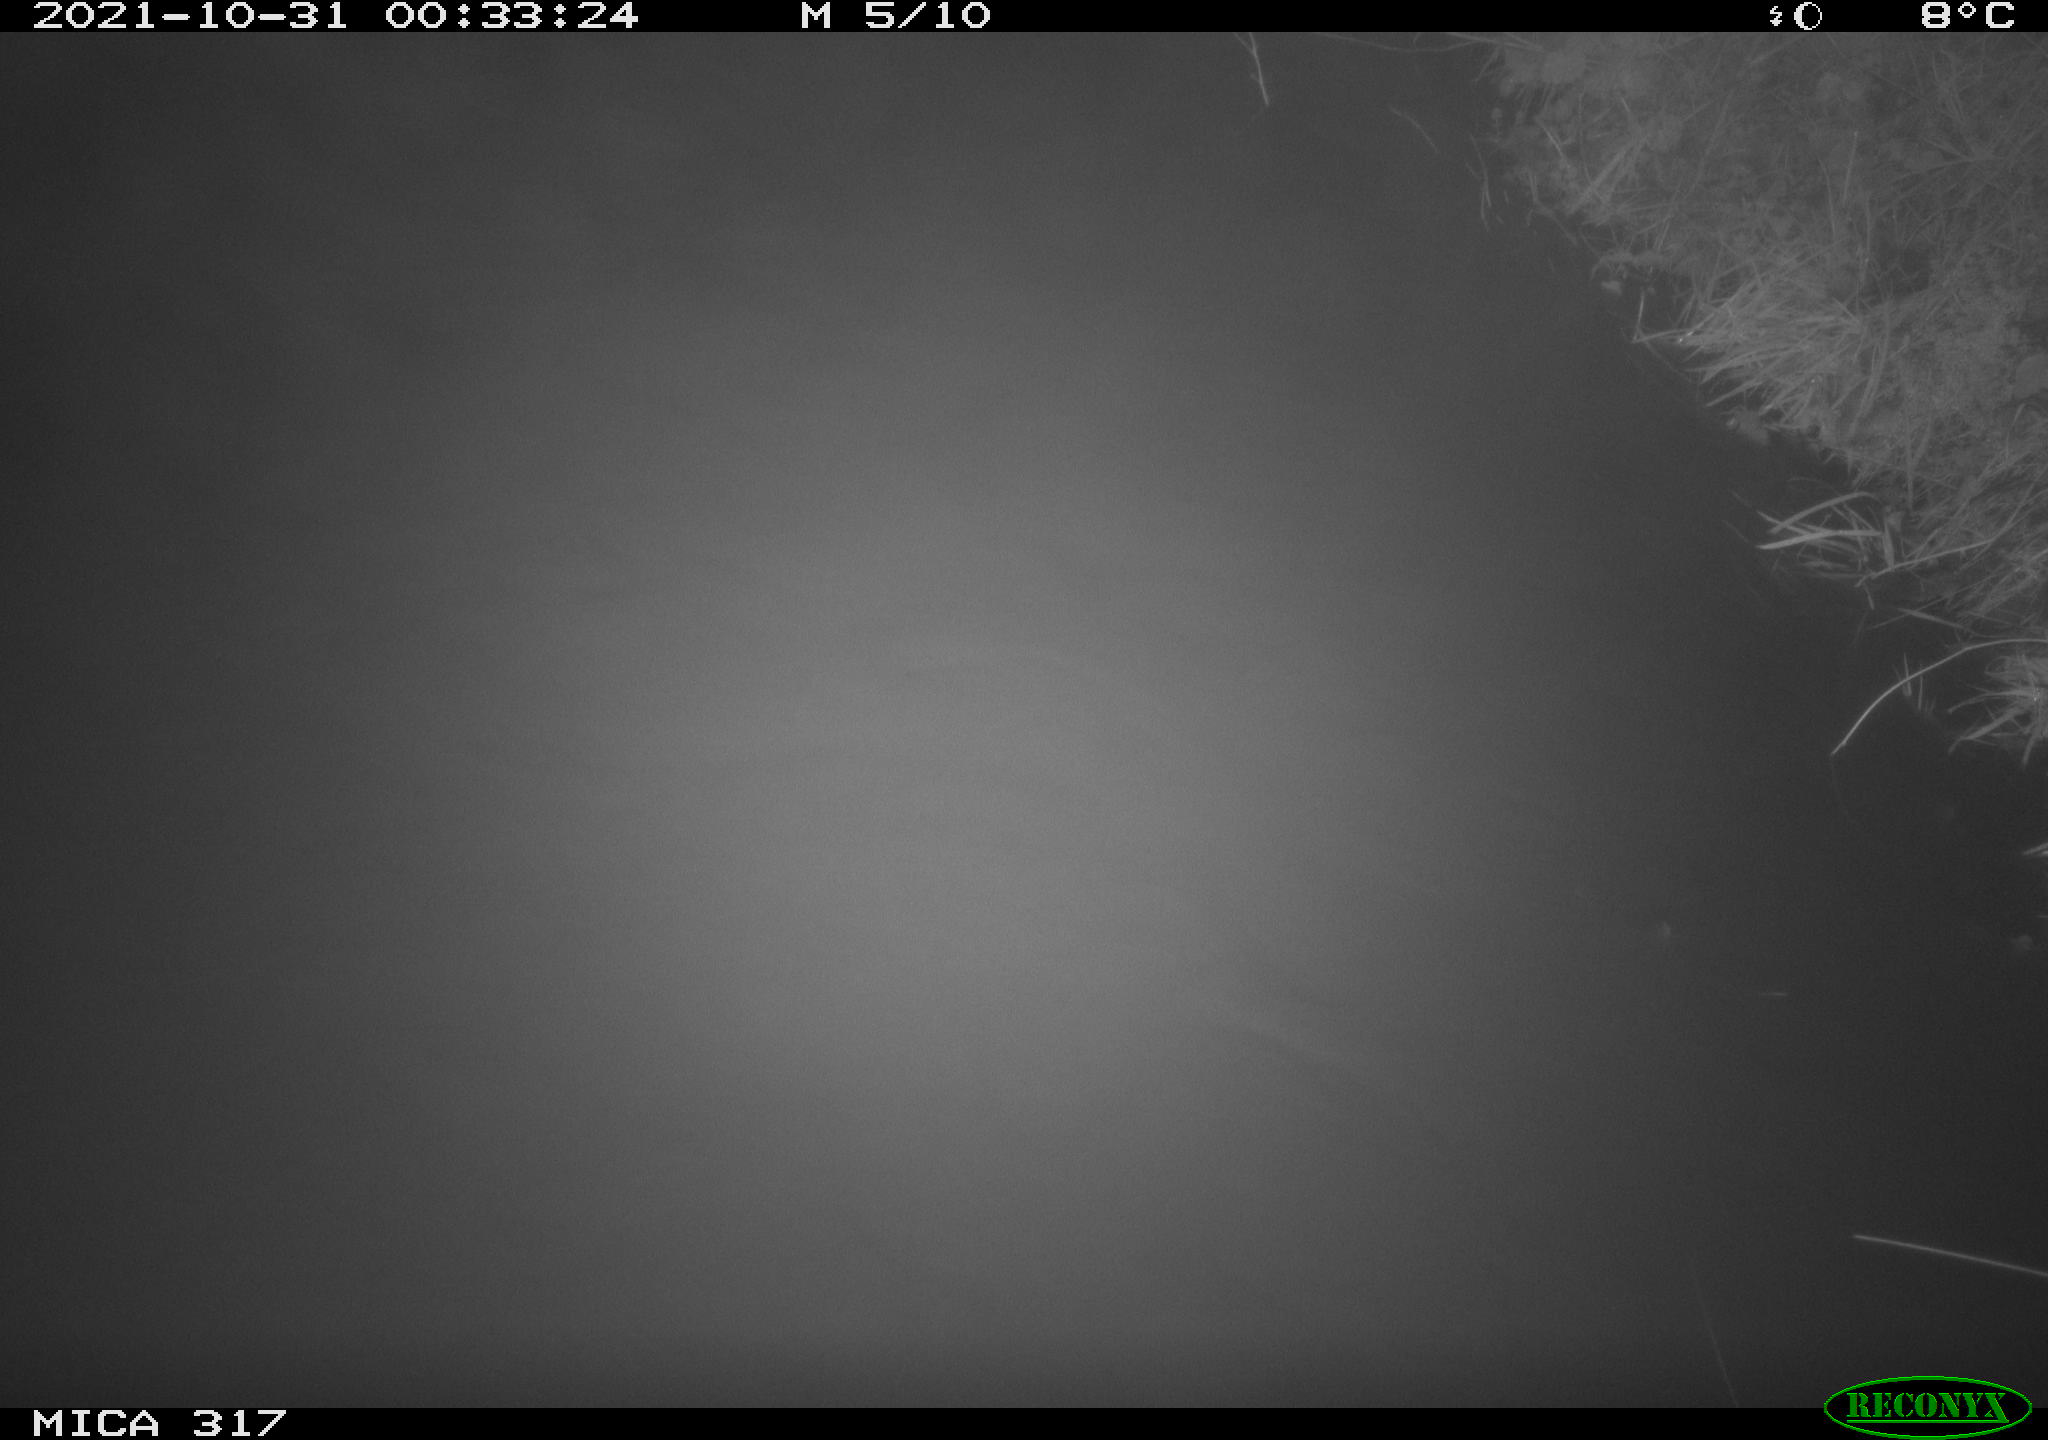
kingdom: Animalia
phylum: Chordata
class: Aves
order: Anseriformes
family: Anatidae
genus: Anas
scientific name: Anas platyrhynchos
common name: Mallard
